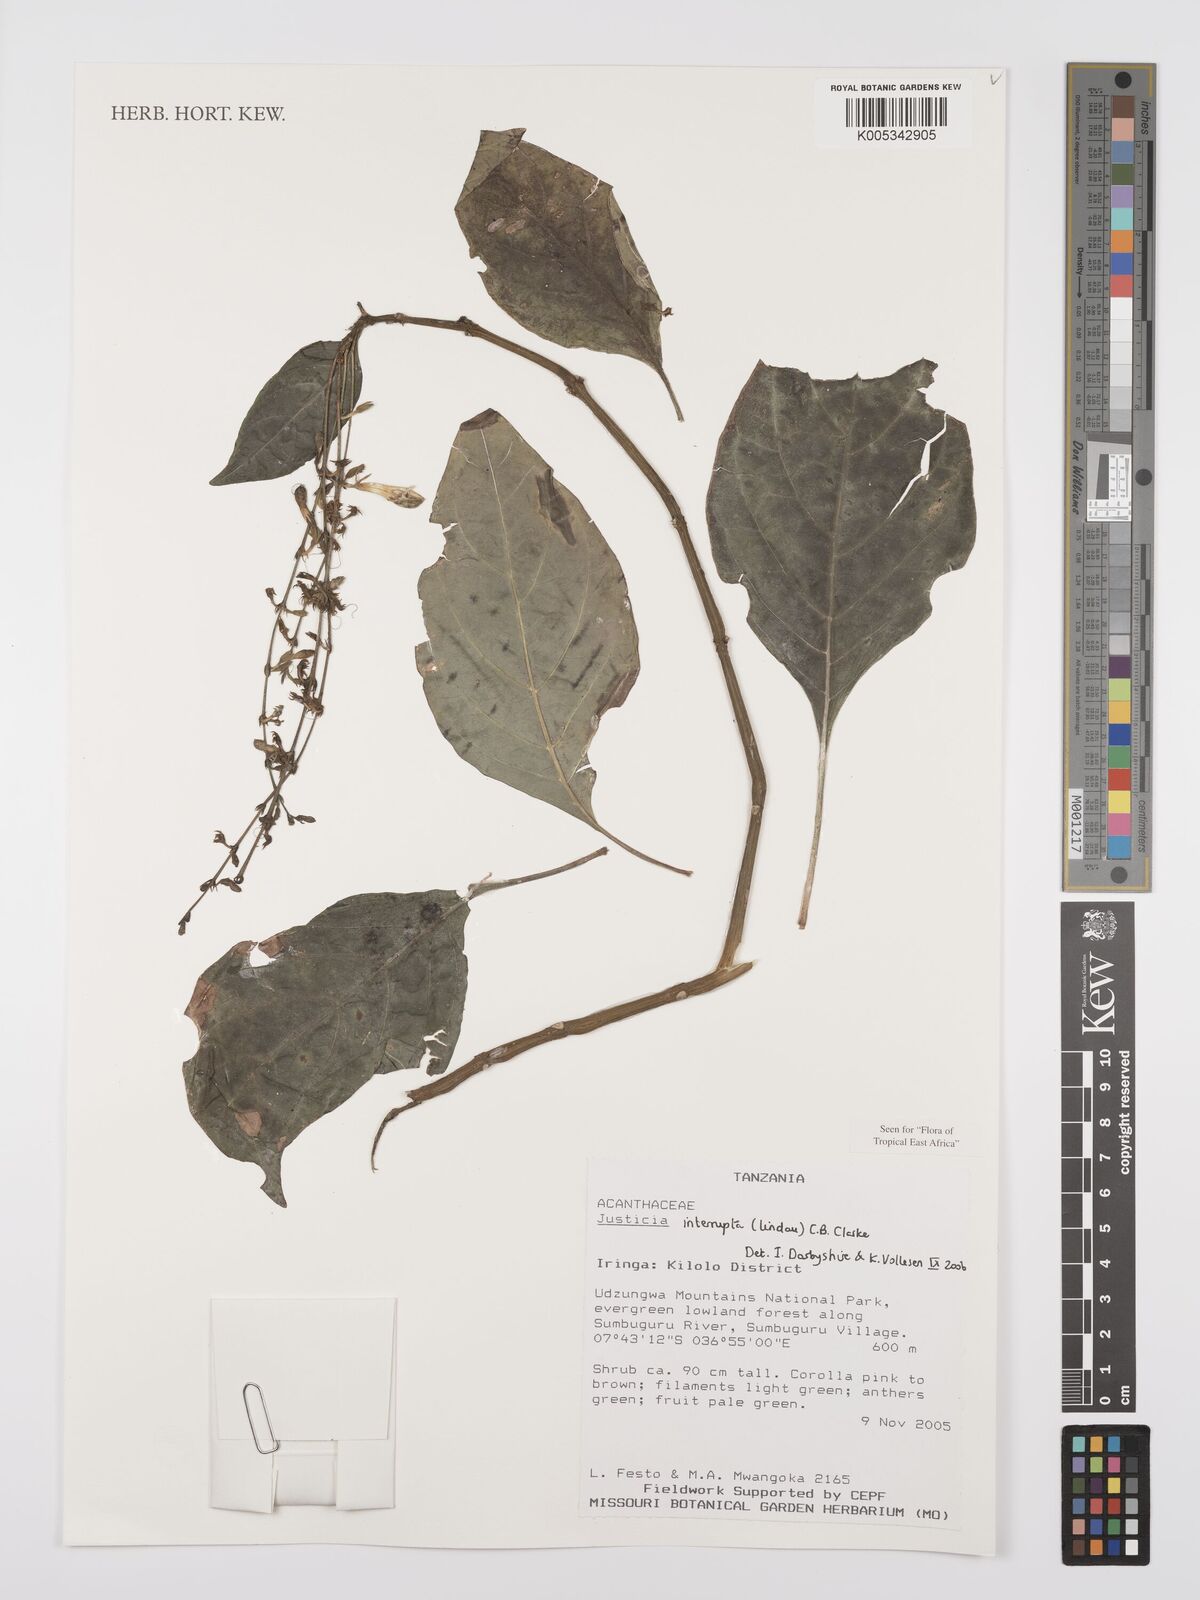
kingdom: Plantae
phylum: Tracheophyta
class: Magnoliopsida
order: Lamiales
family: Acanthaceae
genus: Justicia
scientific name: Justicia plectranthoides
